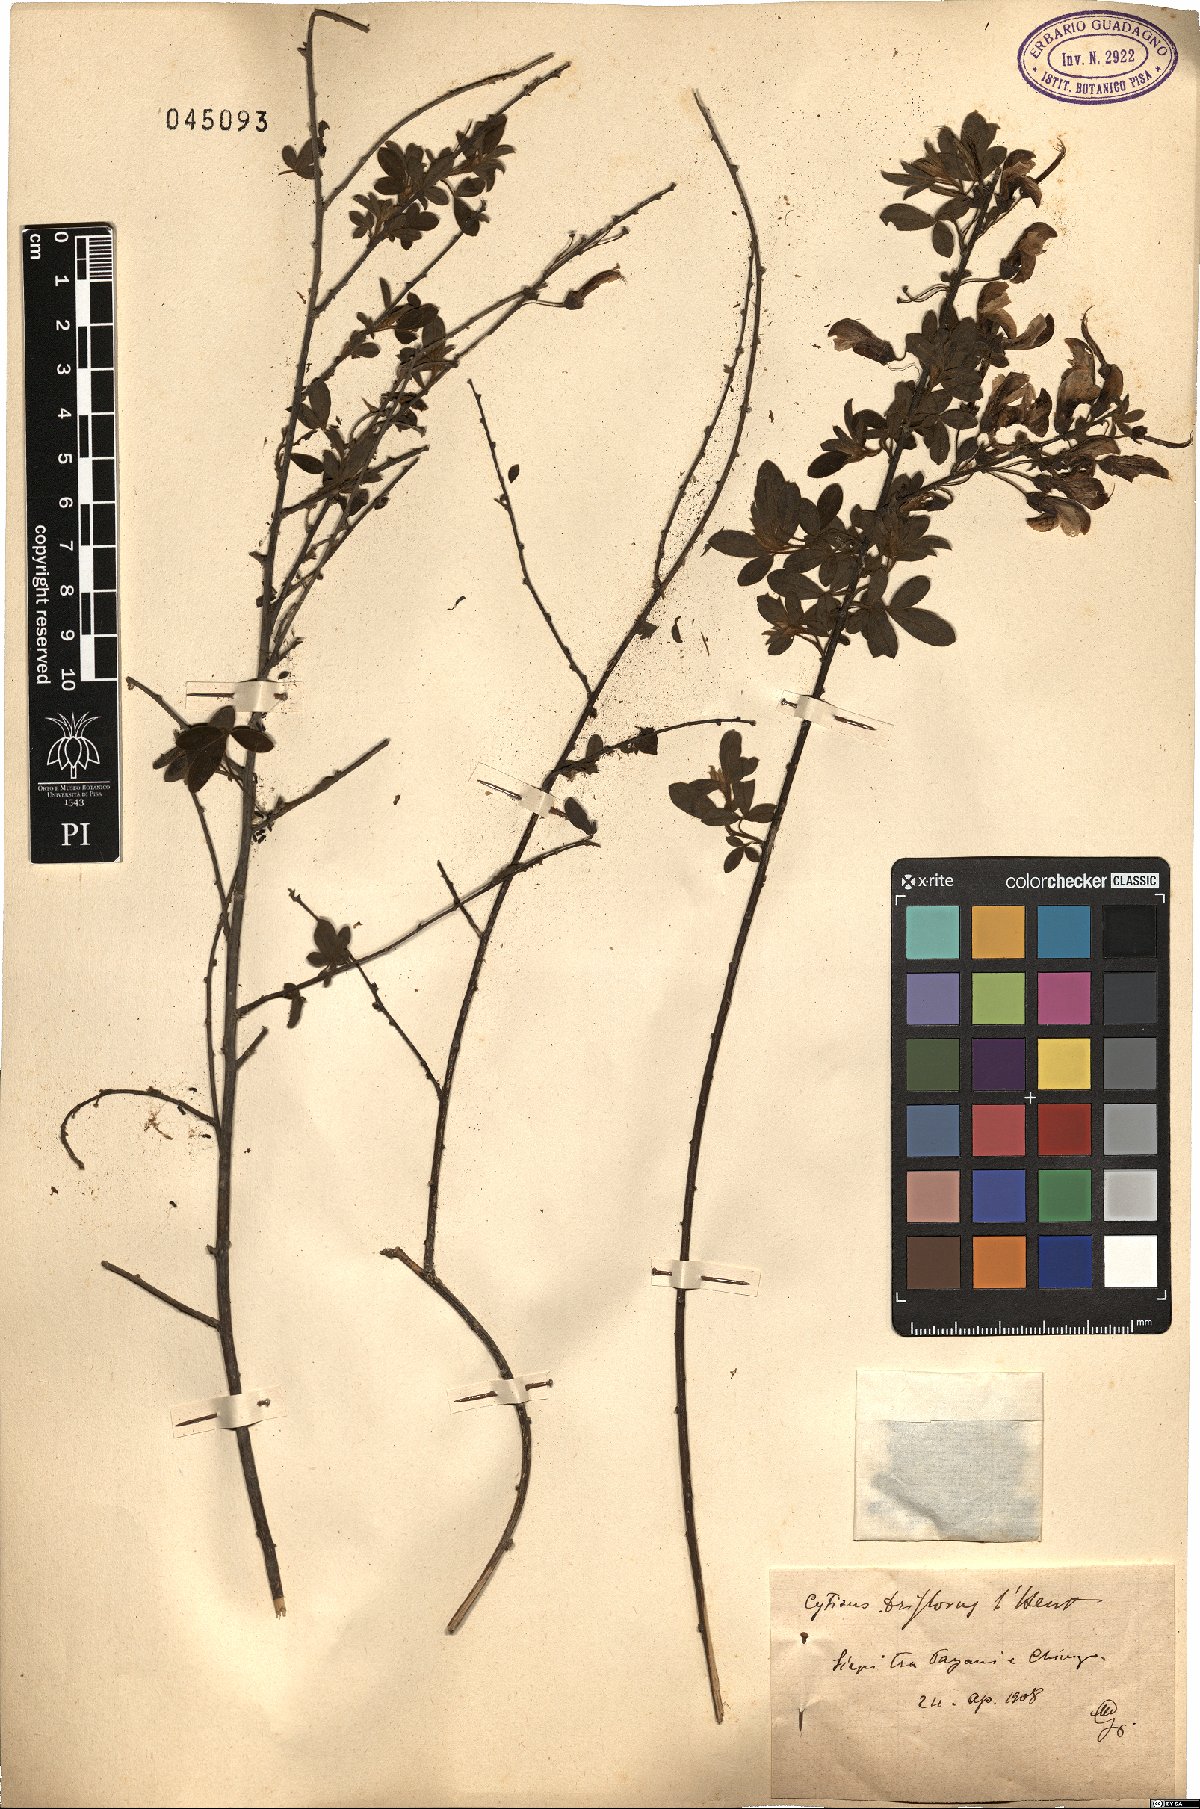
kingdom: Plantae
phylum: Tracheophyta
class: Magnoliopsida
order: Fabales
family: Fabaceae
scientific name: Fabaceae
